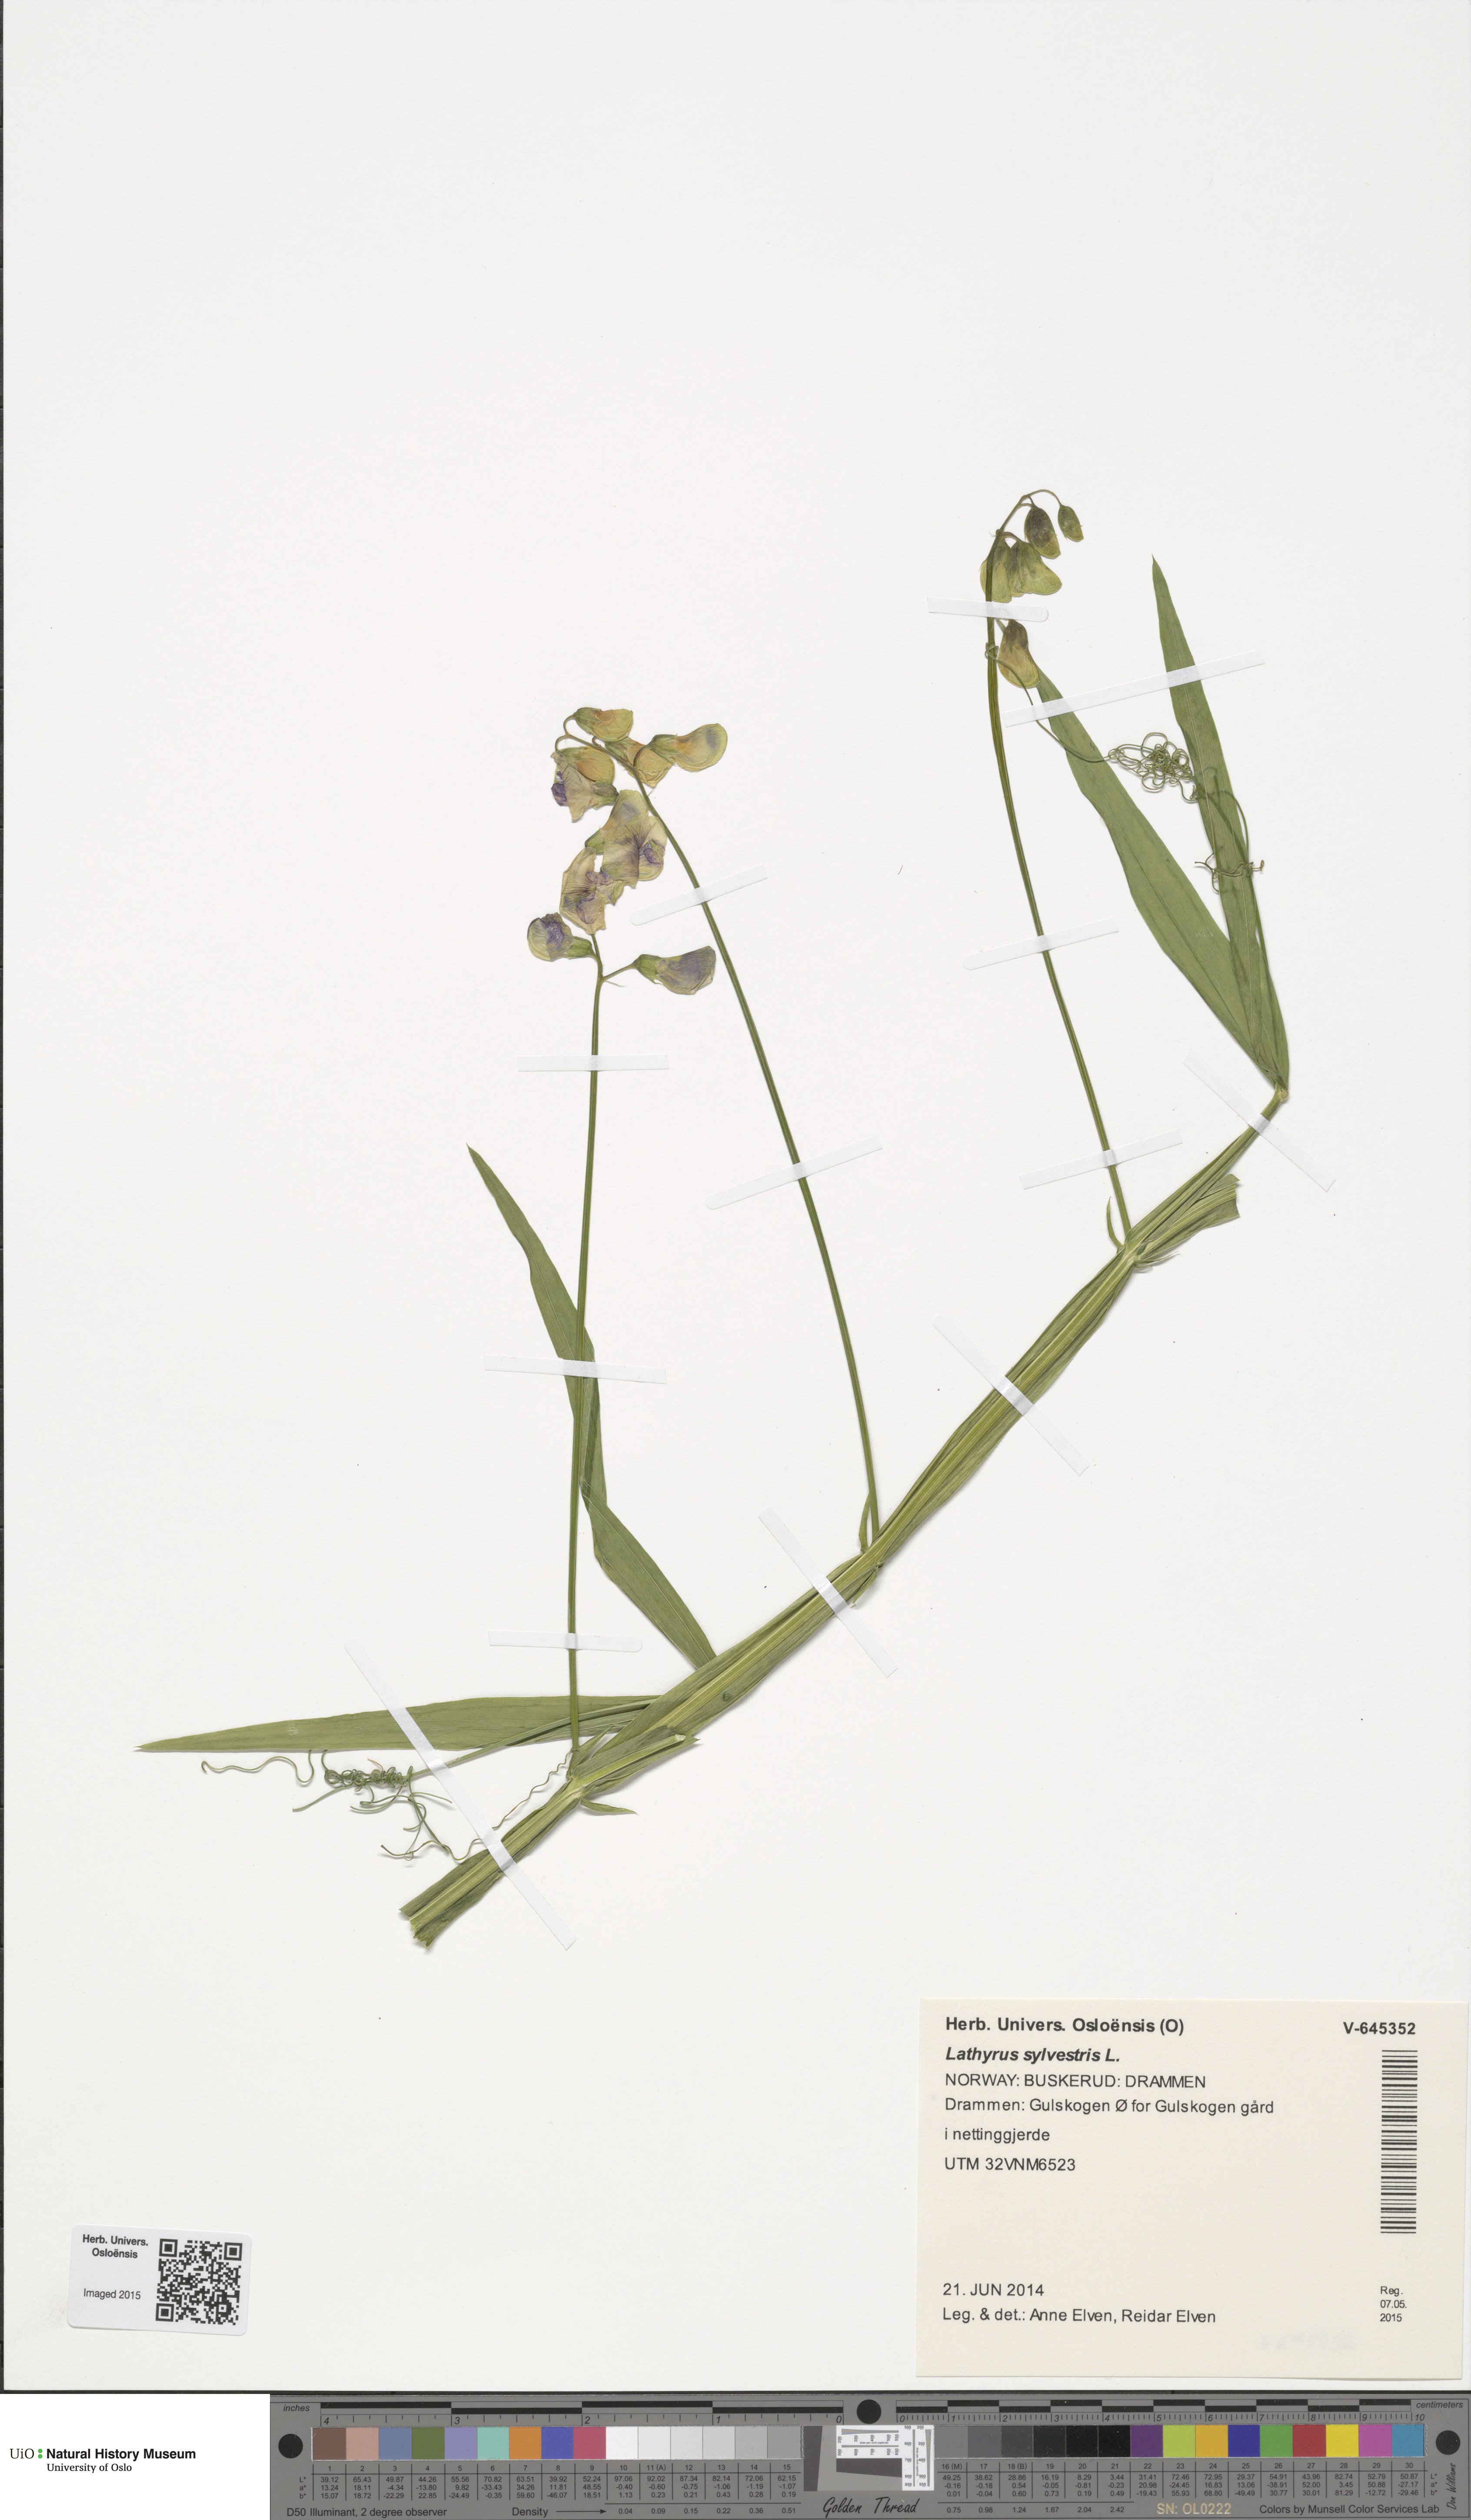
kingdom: Plantae
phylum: Tracheophyta
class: Magnoliopsida
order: Fabales
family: Fabaceae
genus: Lathyrus
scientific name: Lathyrus sylvestris
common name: Flat pea
